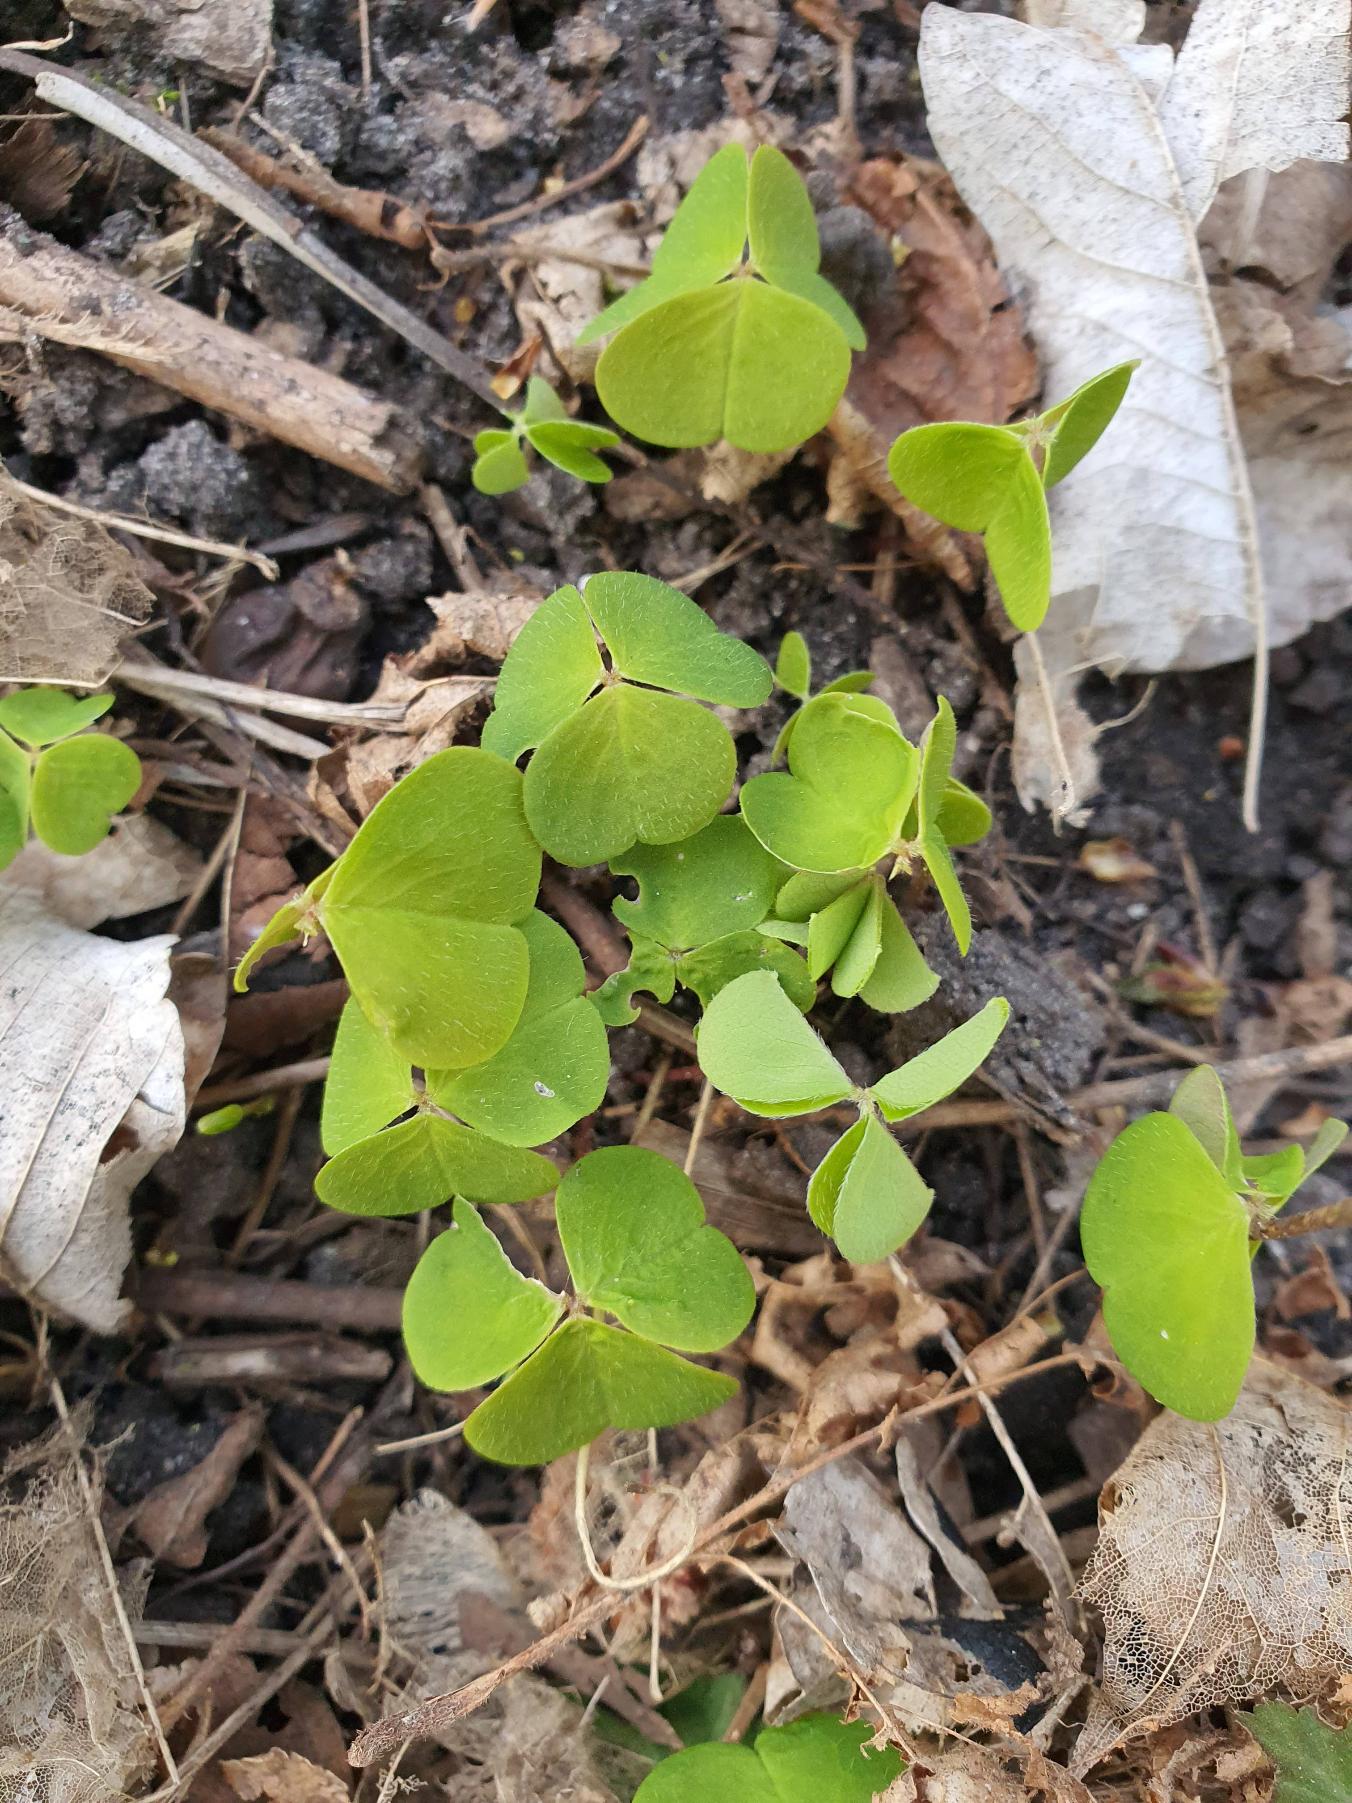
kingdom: Plantae
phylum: Tracheophyta
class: Magnoliopsida
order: Oxalidales
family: Oxalidaceae
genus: Oxalis
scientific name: Oxalis acetosella
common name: Skovsyre
